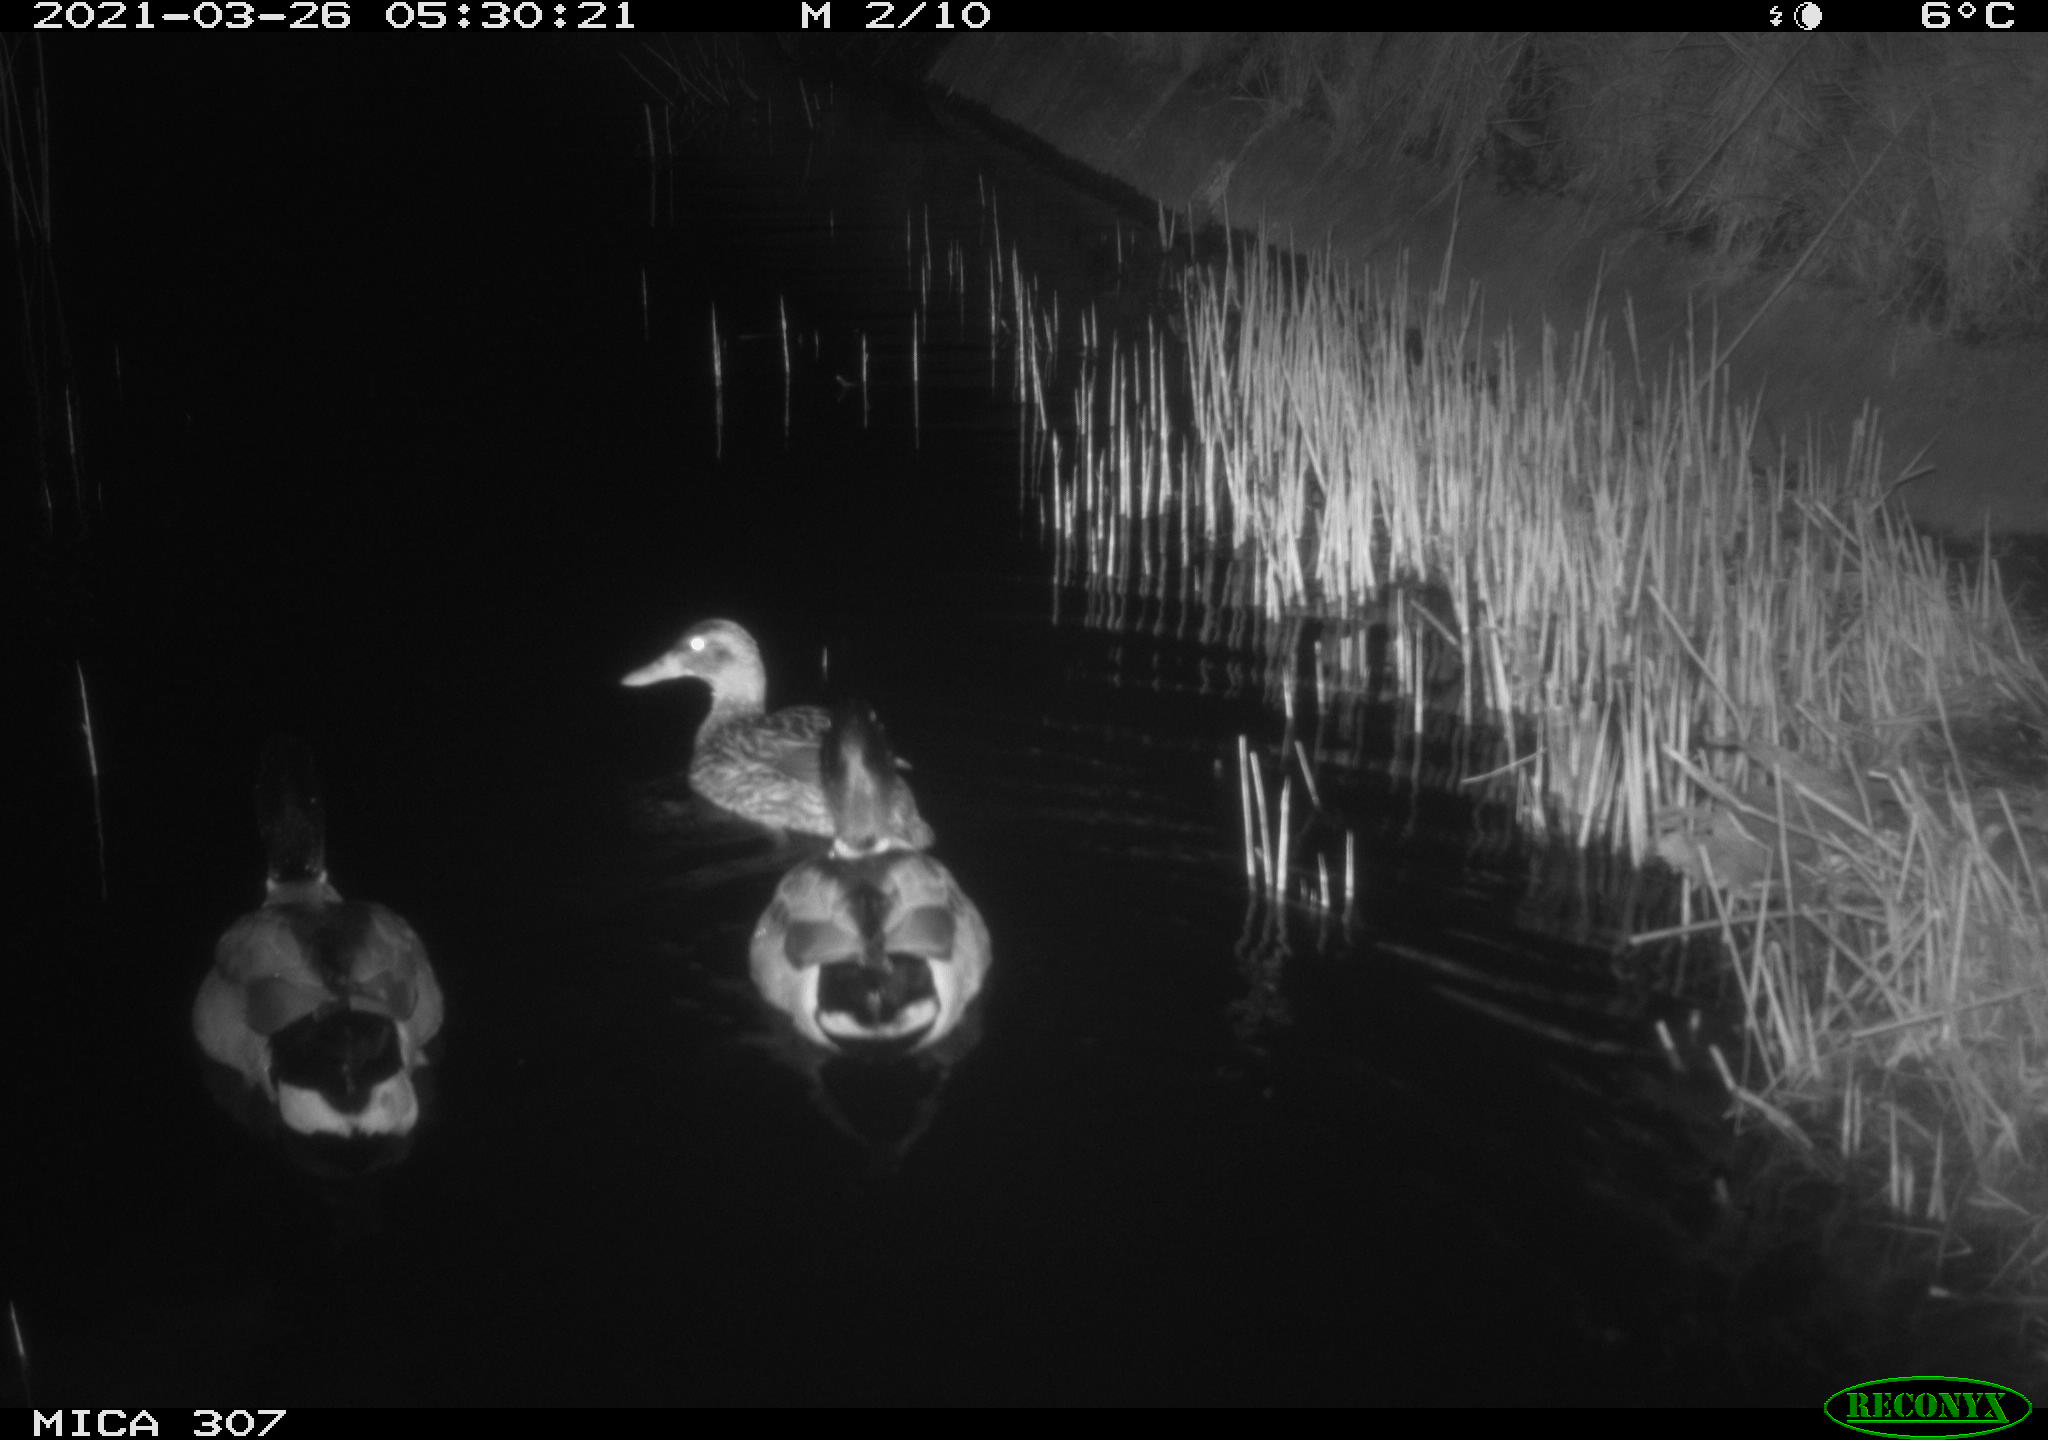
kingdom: Animalia
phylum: Chordata
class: Aves
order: Anseriformes
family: Anatidae
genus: Anas
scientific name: Anas platyrhynchos
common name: Mallard
